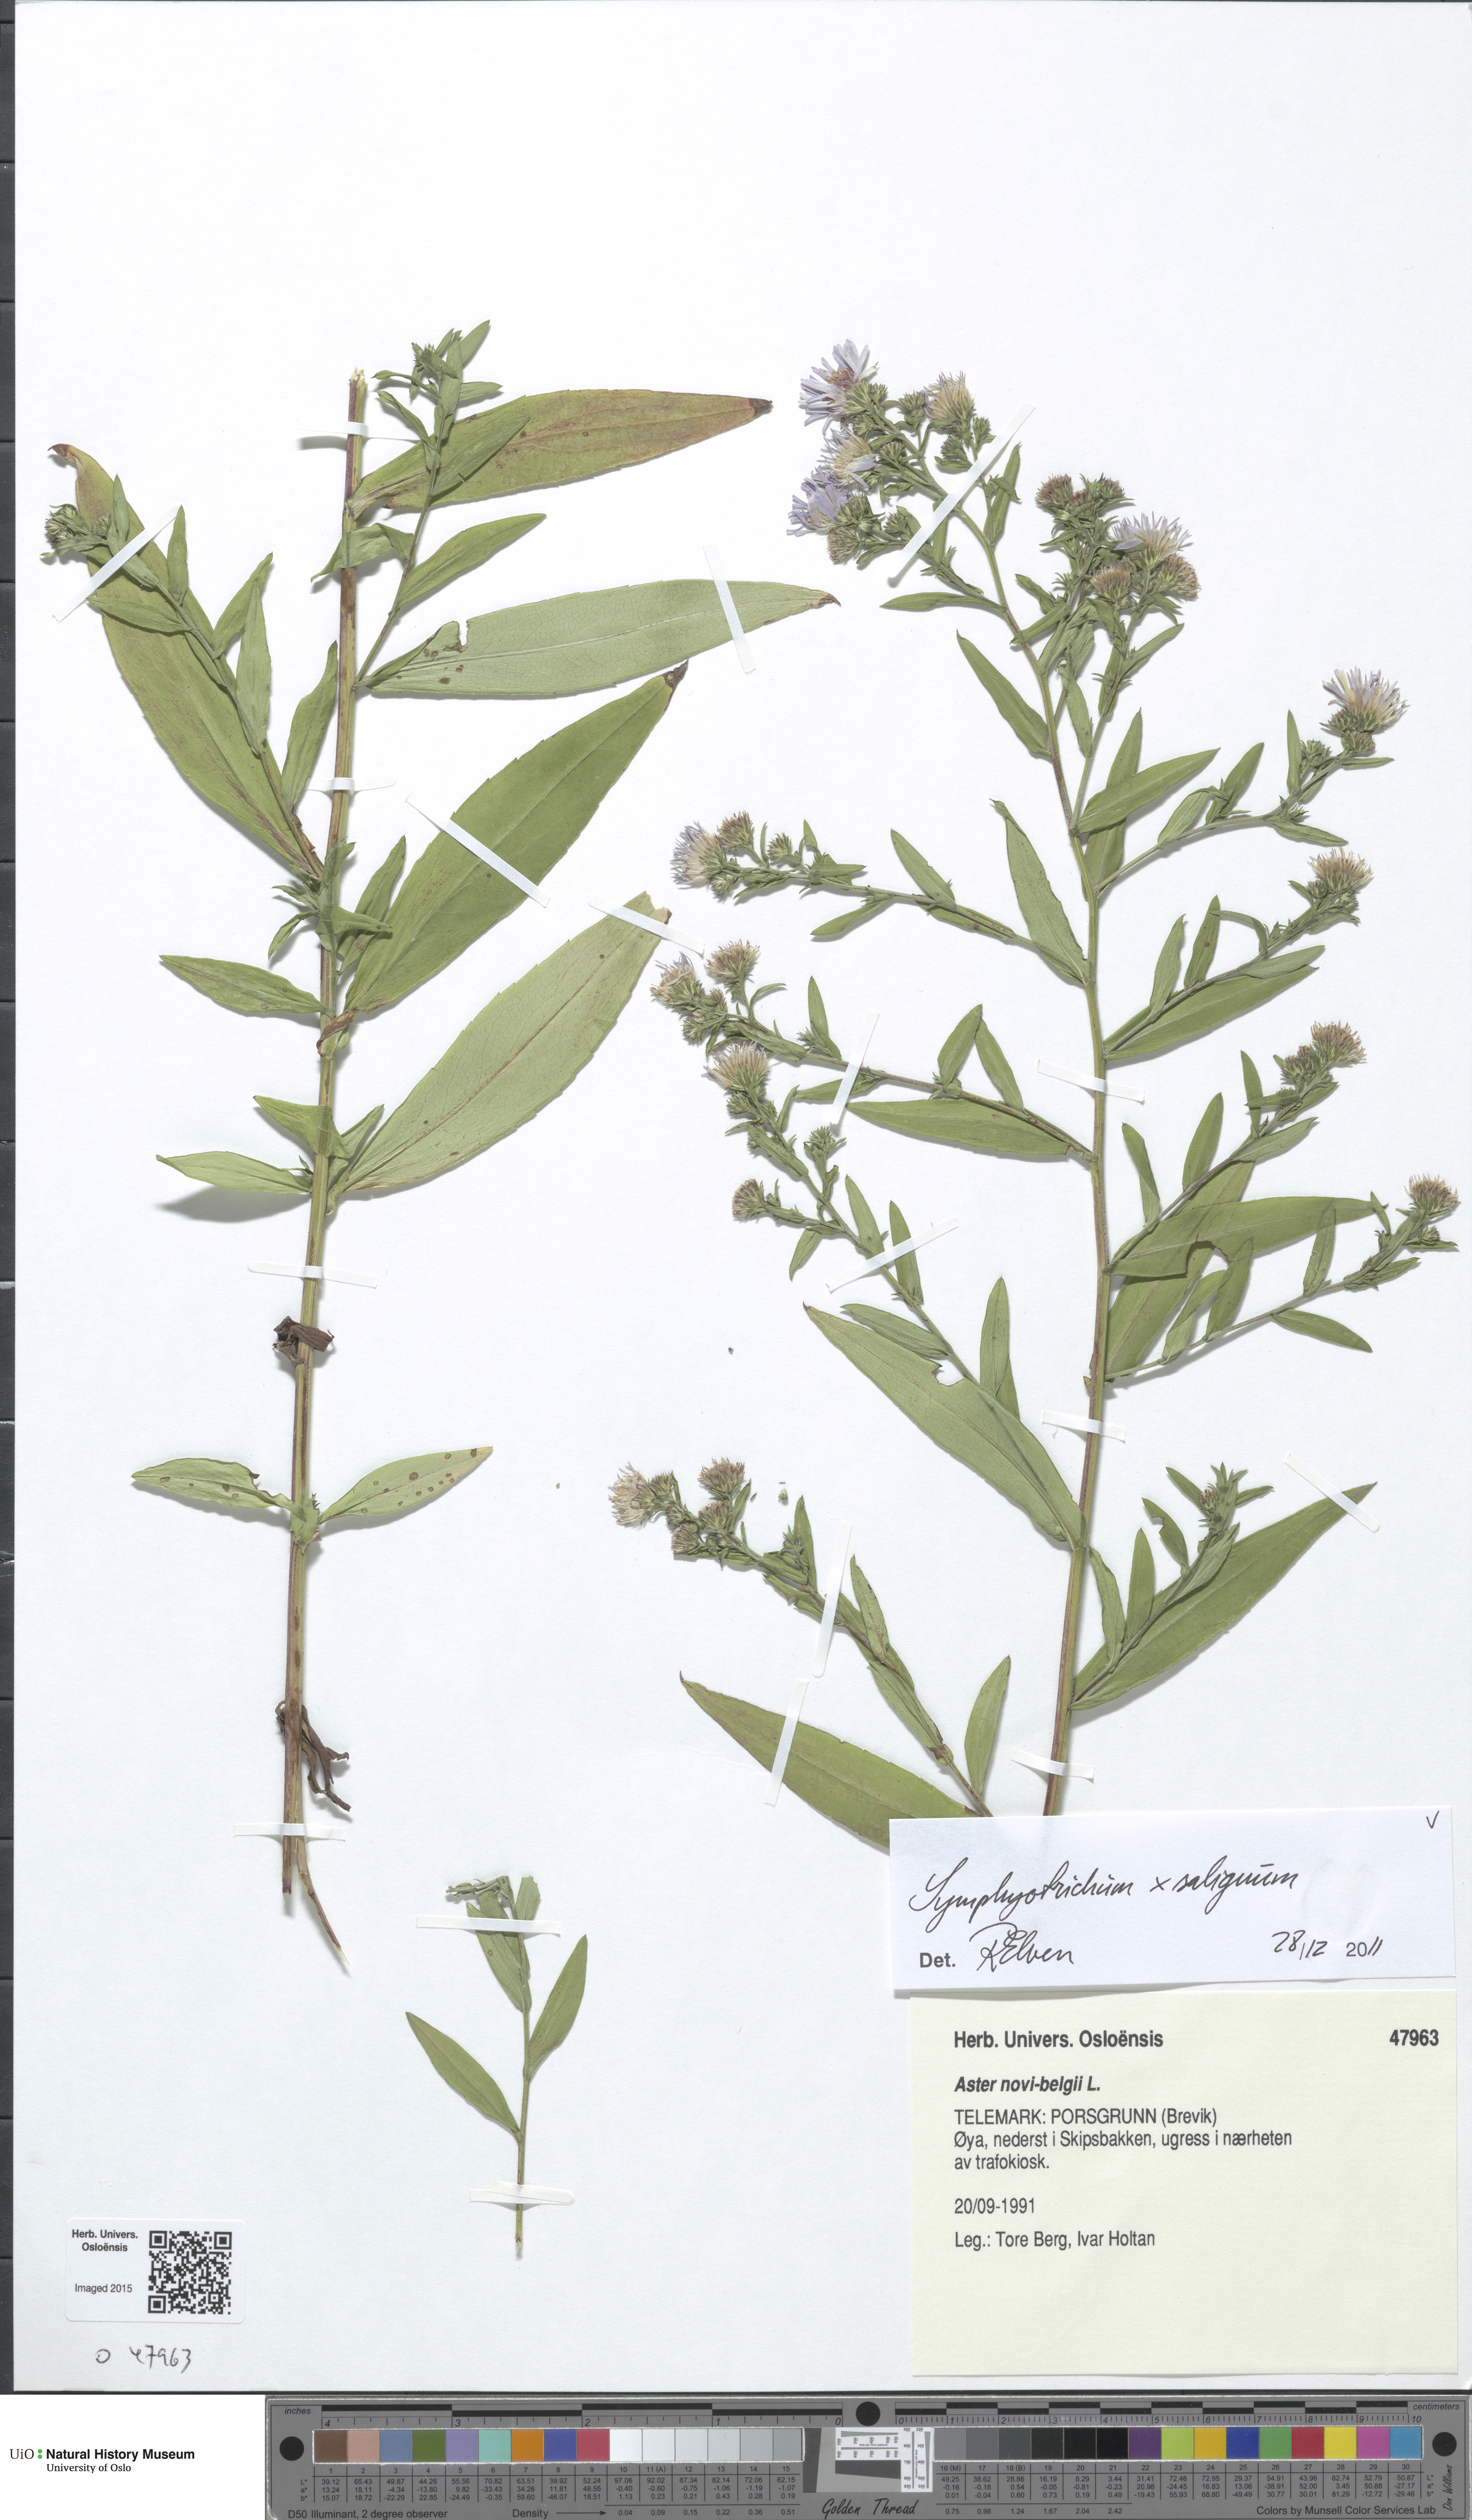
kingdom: Plantae
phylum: Tracheophyta
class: Magnoliopsida
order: Asterales
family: Asteraceae
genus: Symphyotrichum
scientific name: Symphyotrichum versicolor
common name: Late michaelmas daisy
